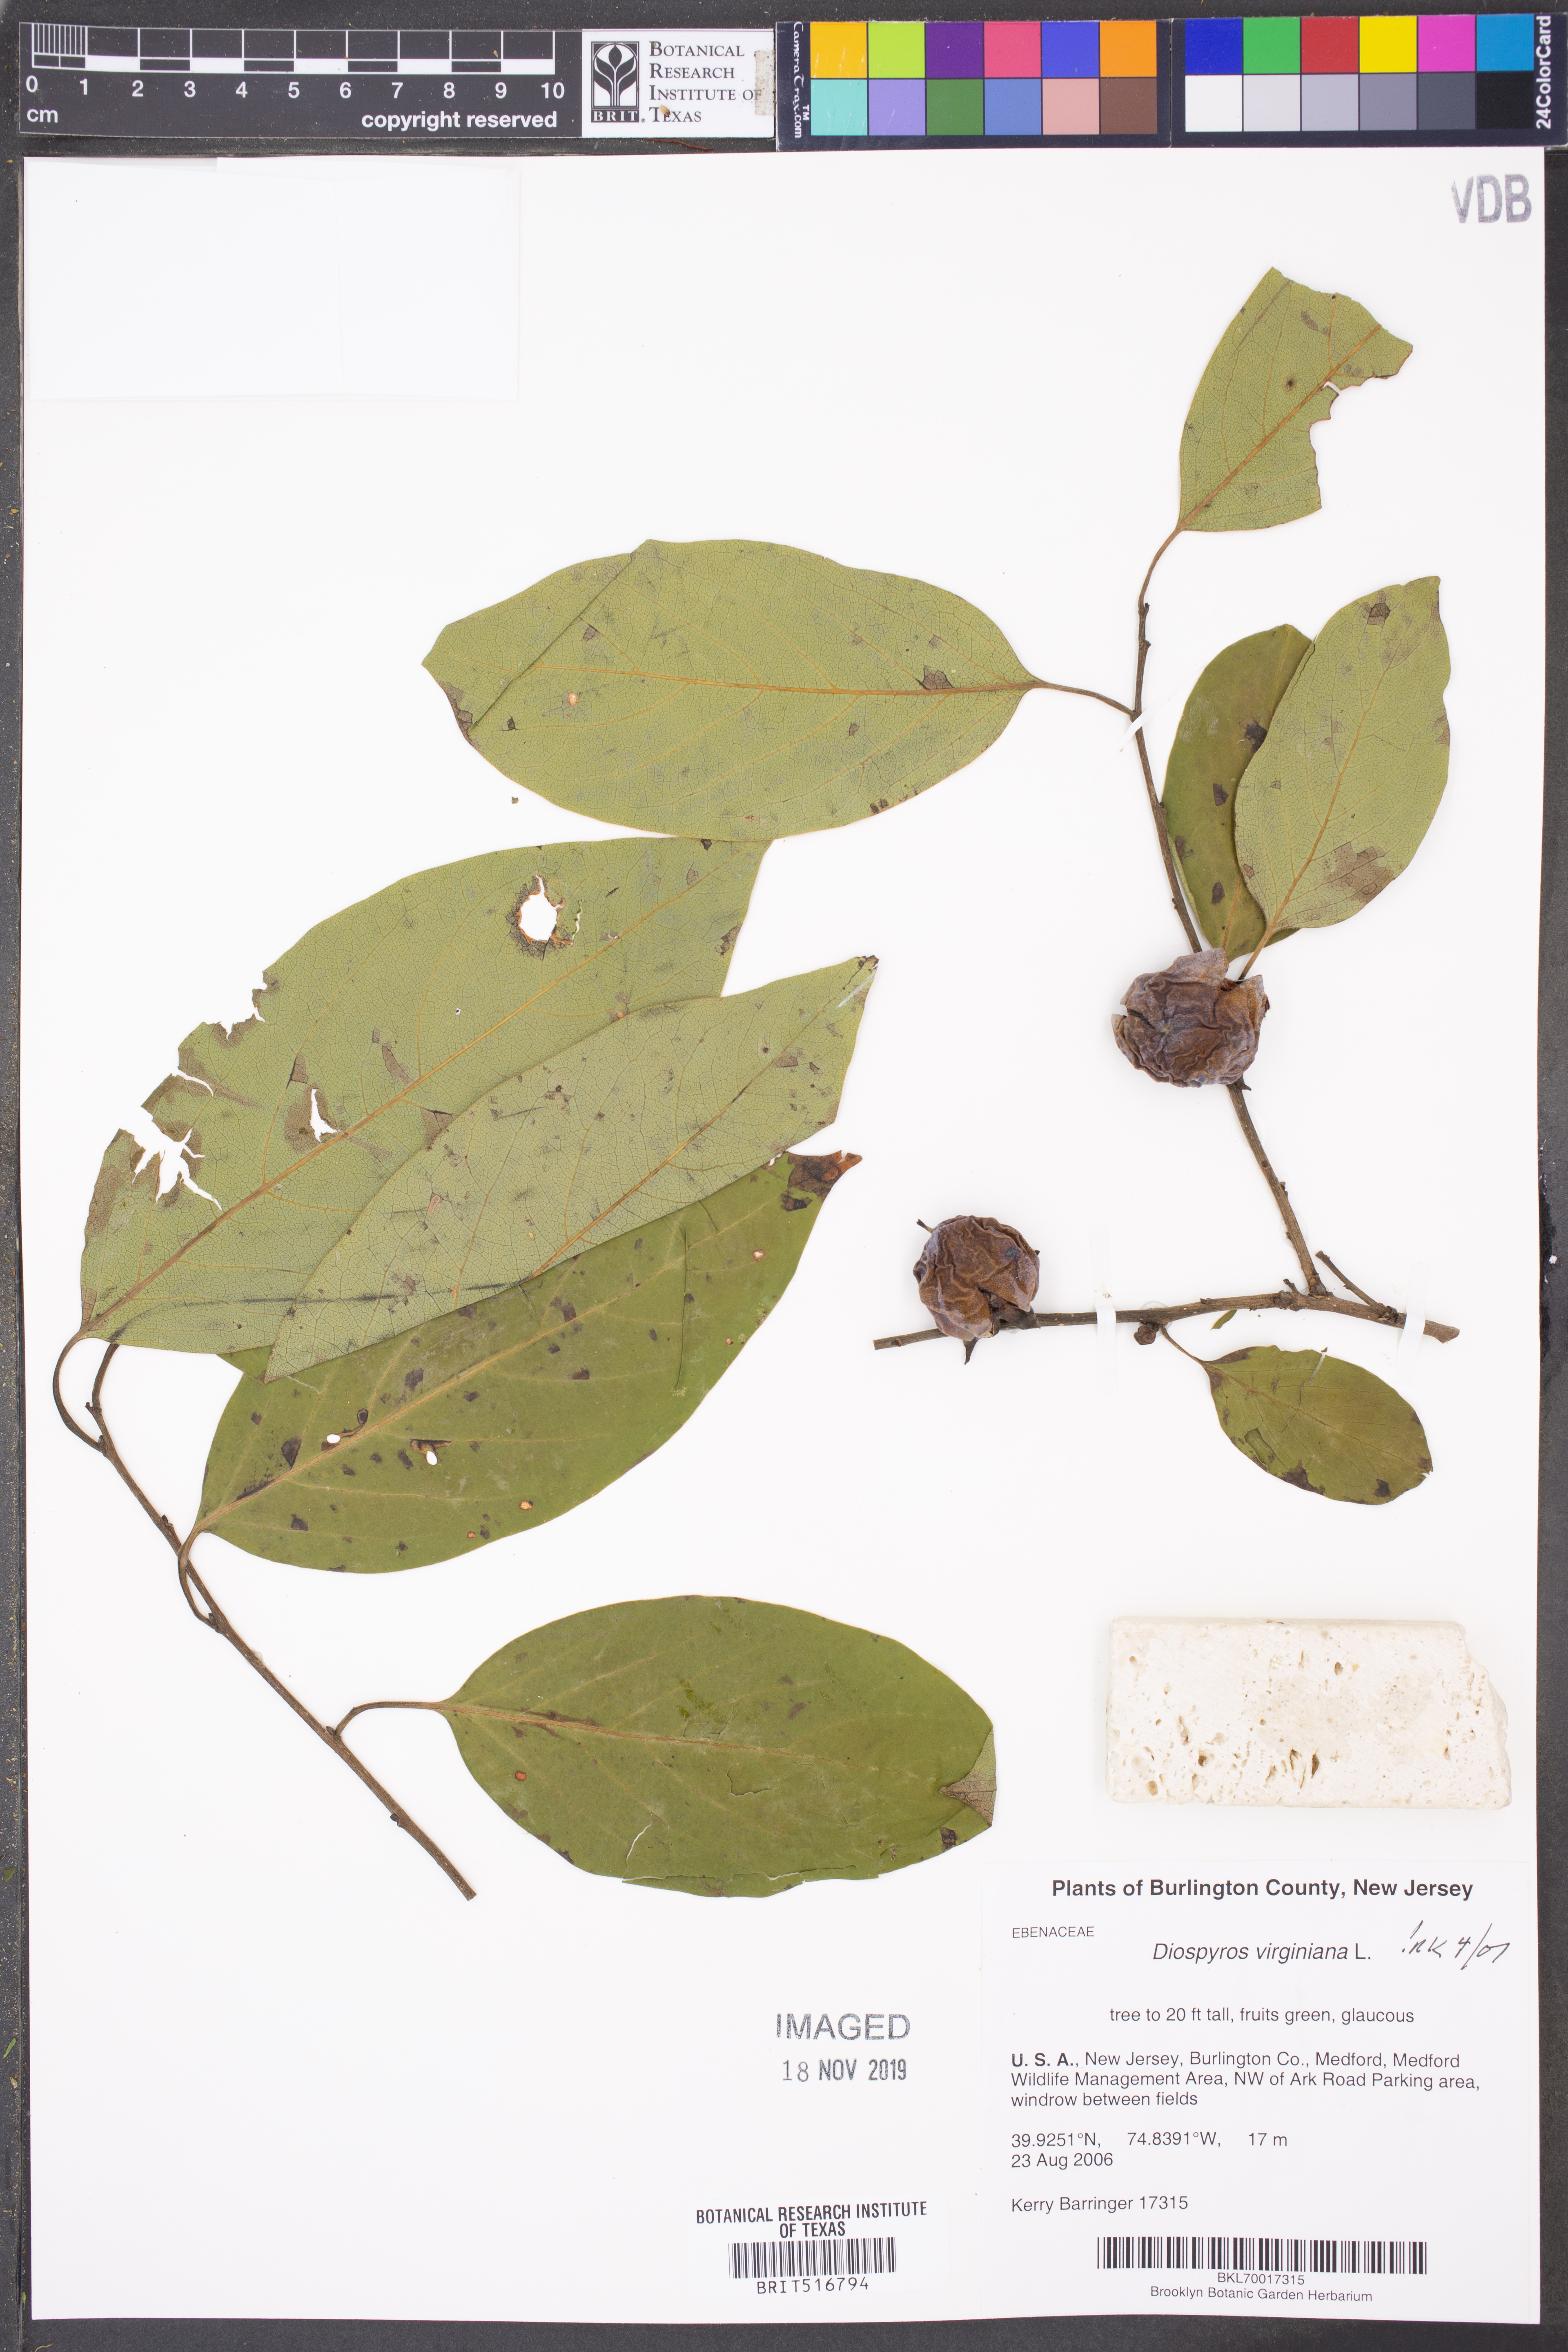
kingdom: Plantae
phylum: Tracheophyta
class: Magnoliopsida
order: Ericales
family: Ebenaceae
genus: Diospyros
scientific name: Diospyros virginiana
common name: Persimmon
